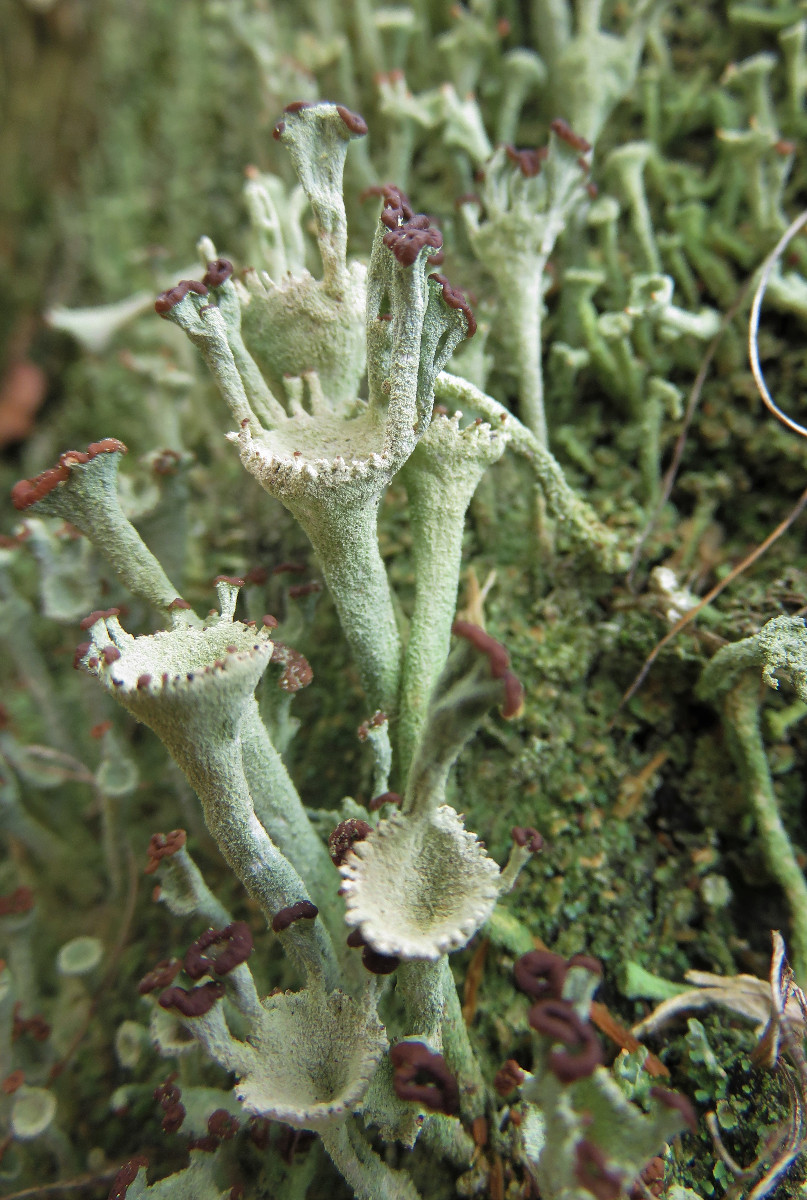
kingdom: Fungi
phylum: Ascomycota
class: Lecanoromycetes
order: Lecanorales
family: Cladoniaceae
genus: Cladonia
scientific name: Cladonia fimbriata
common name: bleggrøn bægerlav
